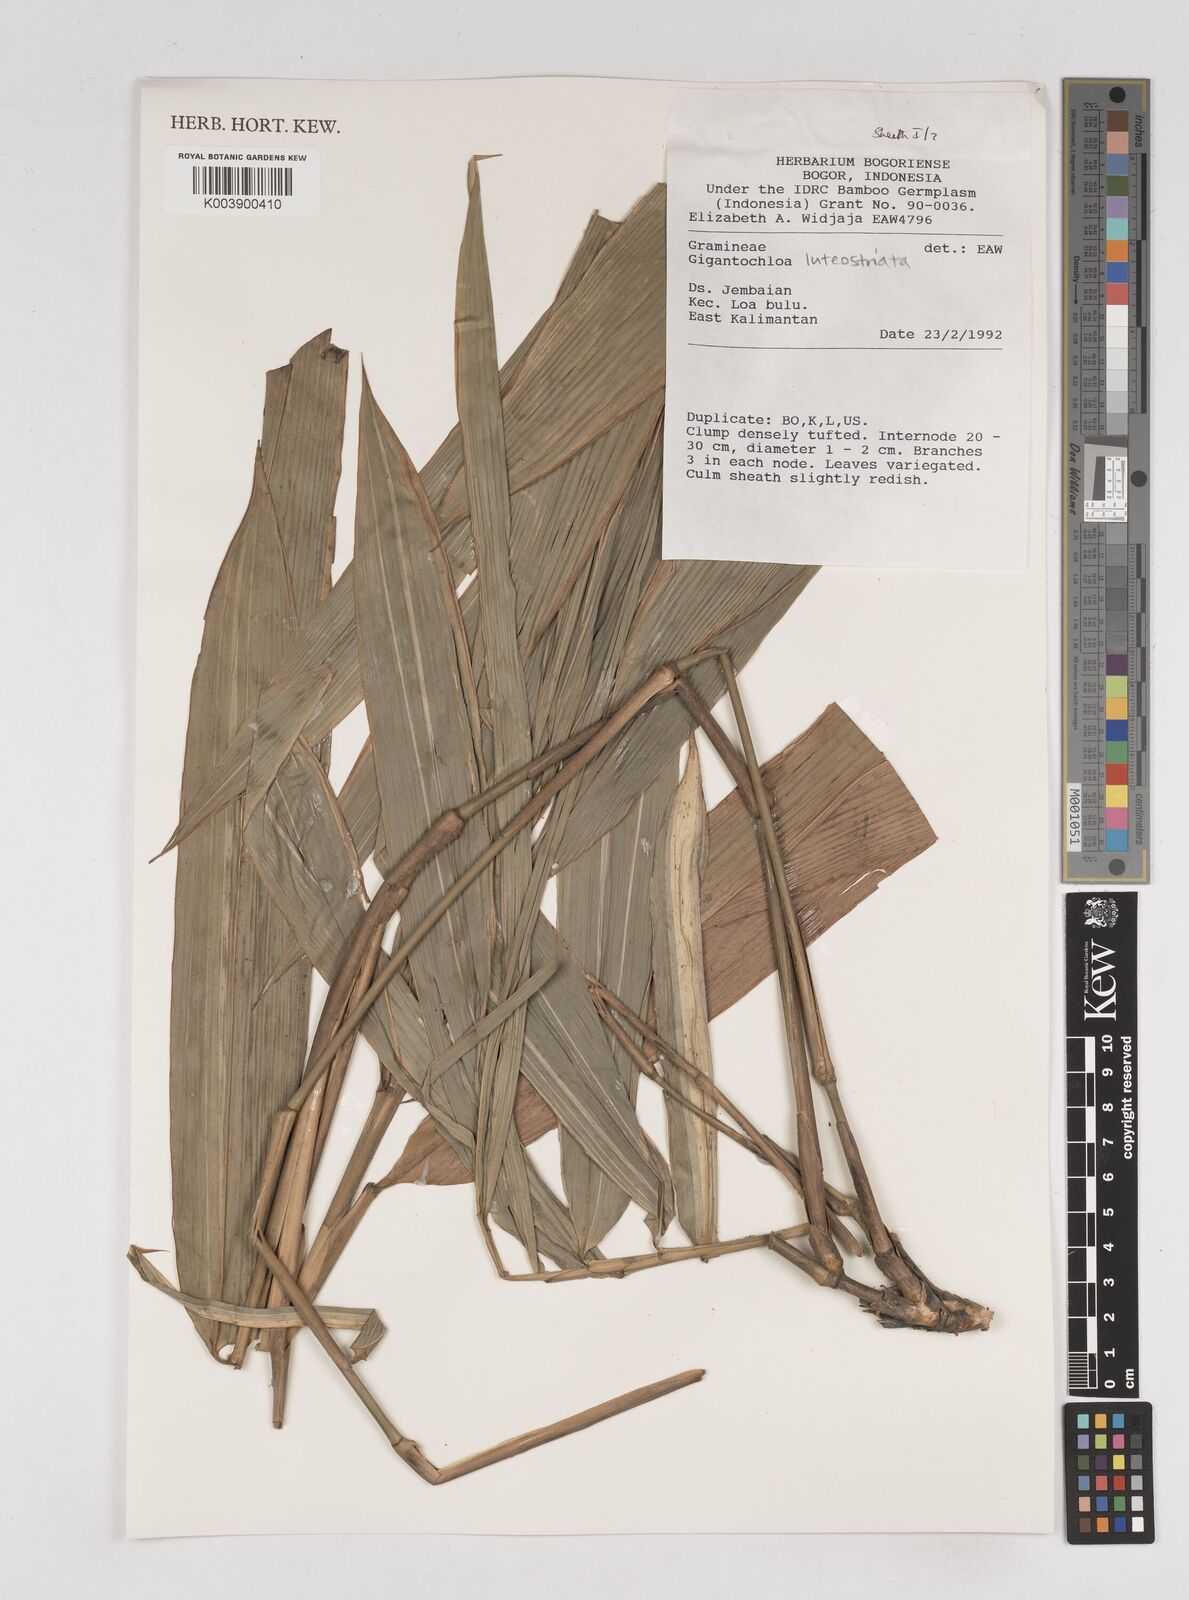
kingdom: Plantae
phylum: Tracheophyta
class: Liliopsida
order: Poales
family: Poaceae
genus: Gigantochloa
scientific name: Gigantochloa luteostriata
